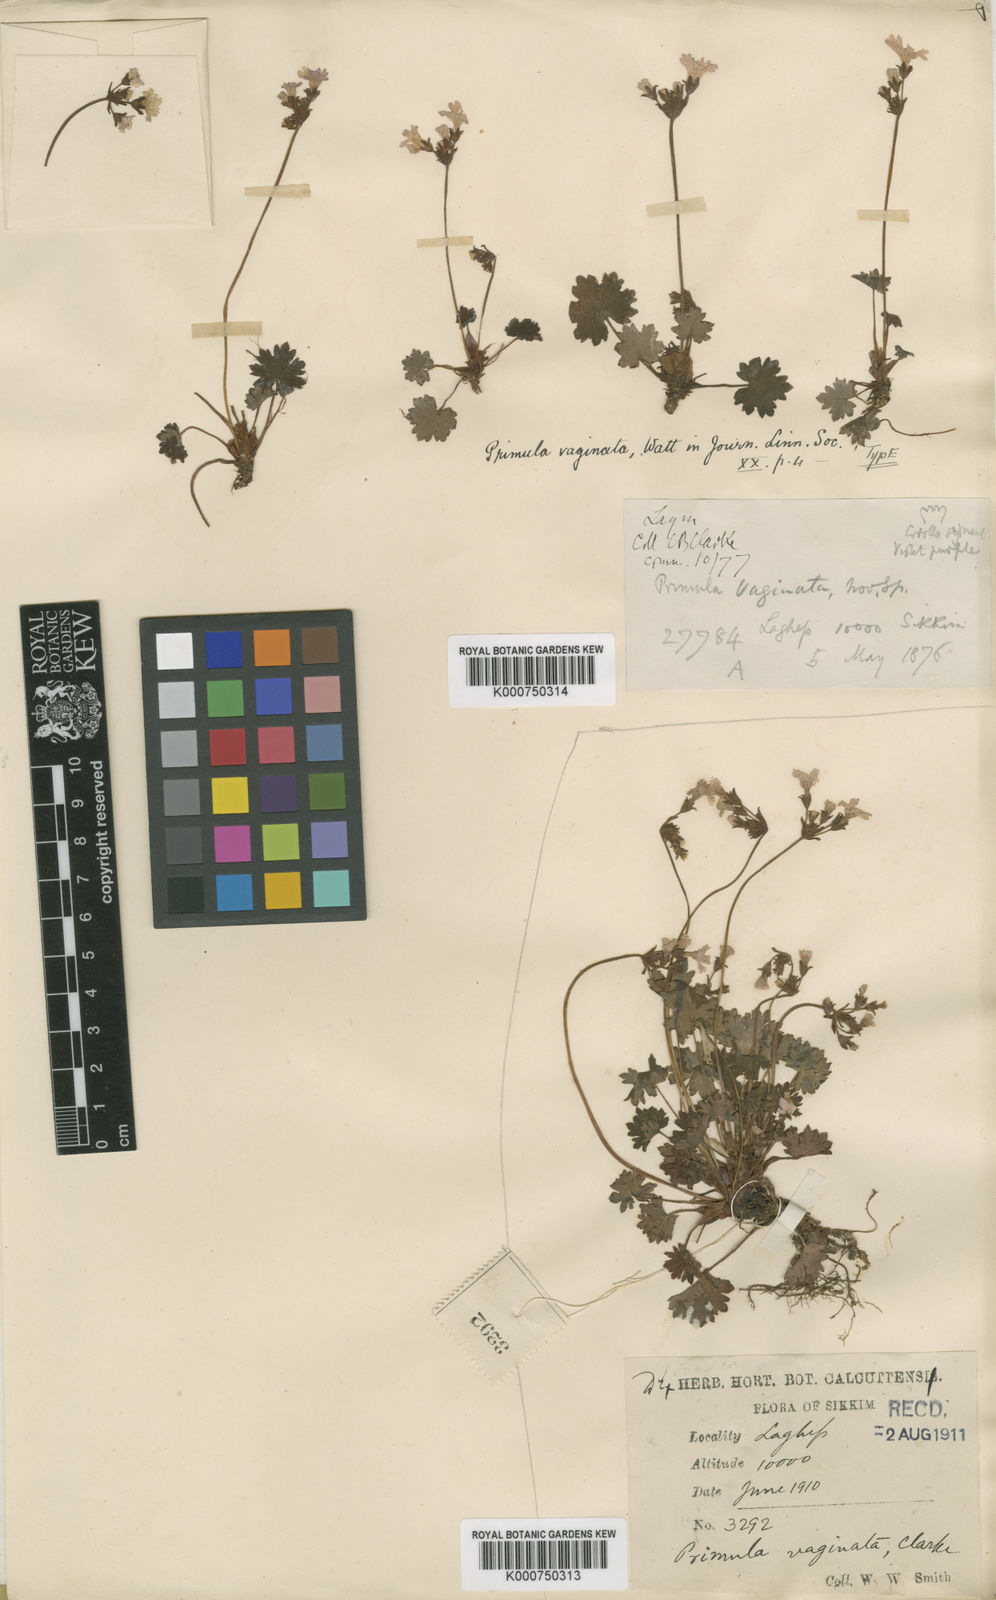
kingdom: Plantae
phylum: Tracheophyta
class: Magnoliopsida
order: Ericales
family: Primulaceae
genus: Primula
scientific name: Primula vaginata
